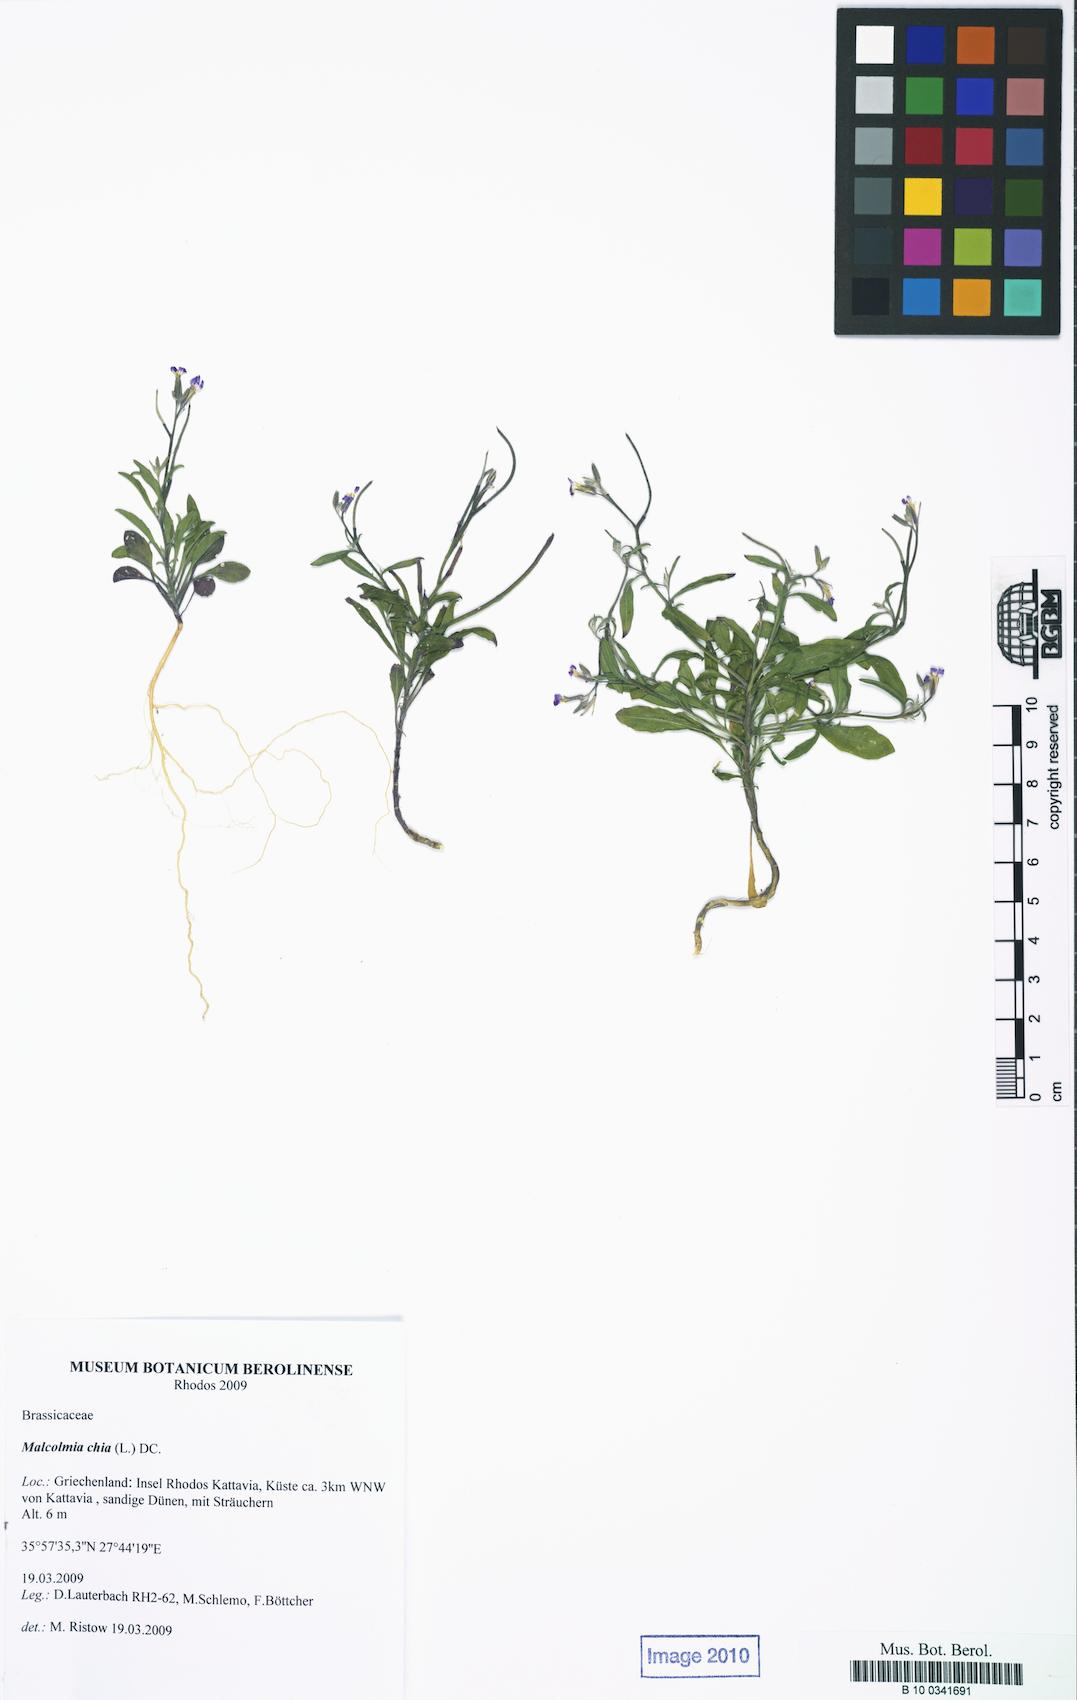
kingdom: Plantae
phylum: Tracheophyta
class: Magnoliopsida
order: Brassicales
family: Brassicaceae
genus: Malcolmia
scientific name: Malcolmia chia
